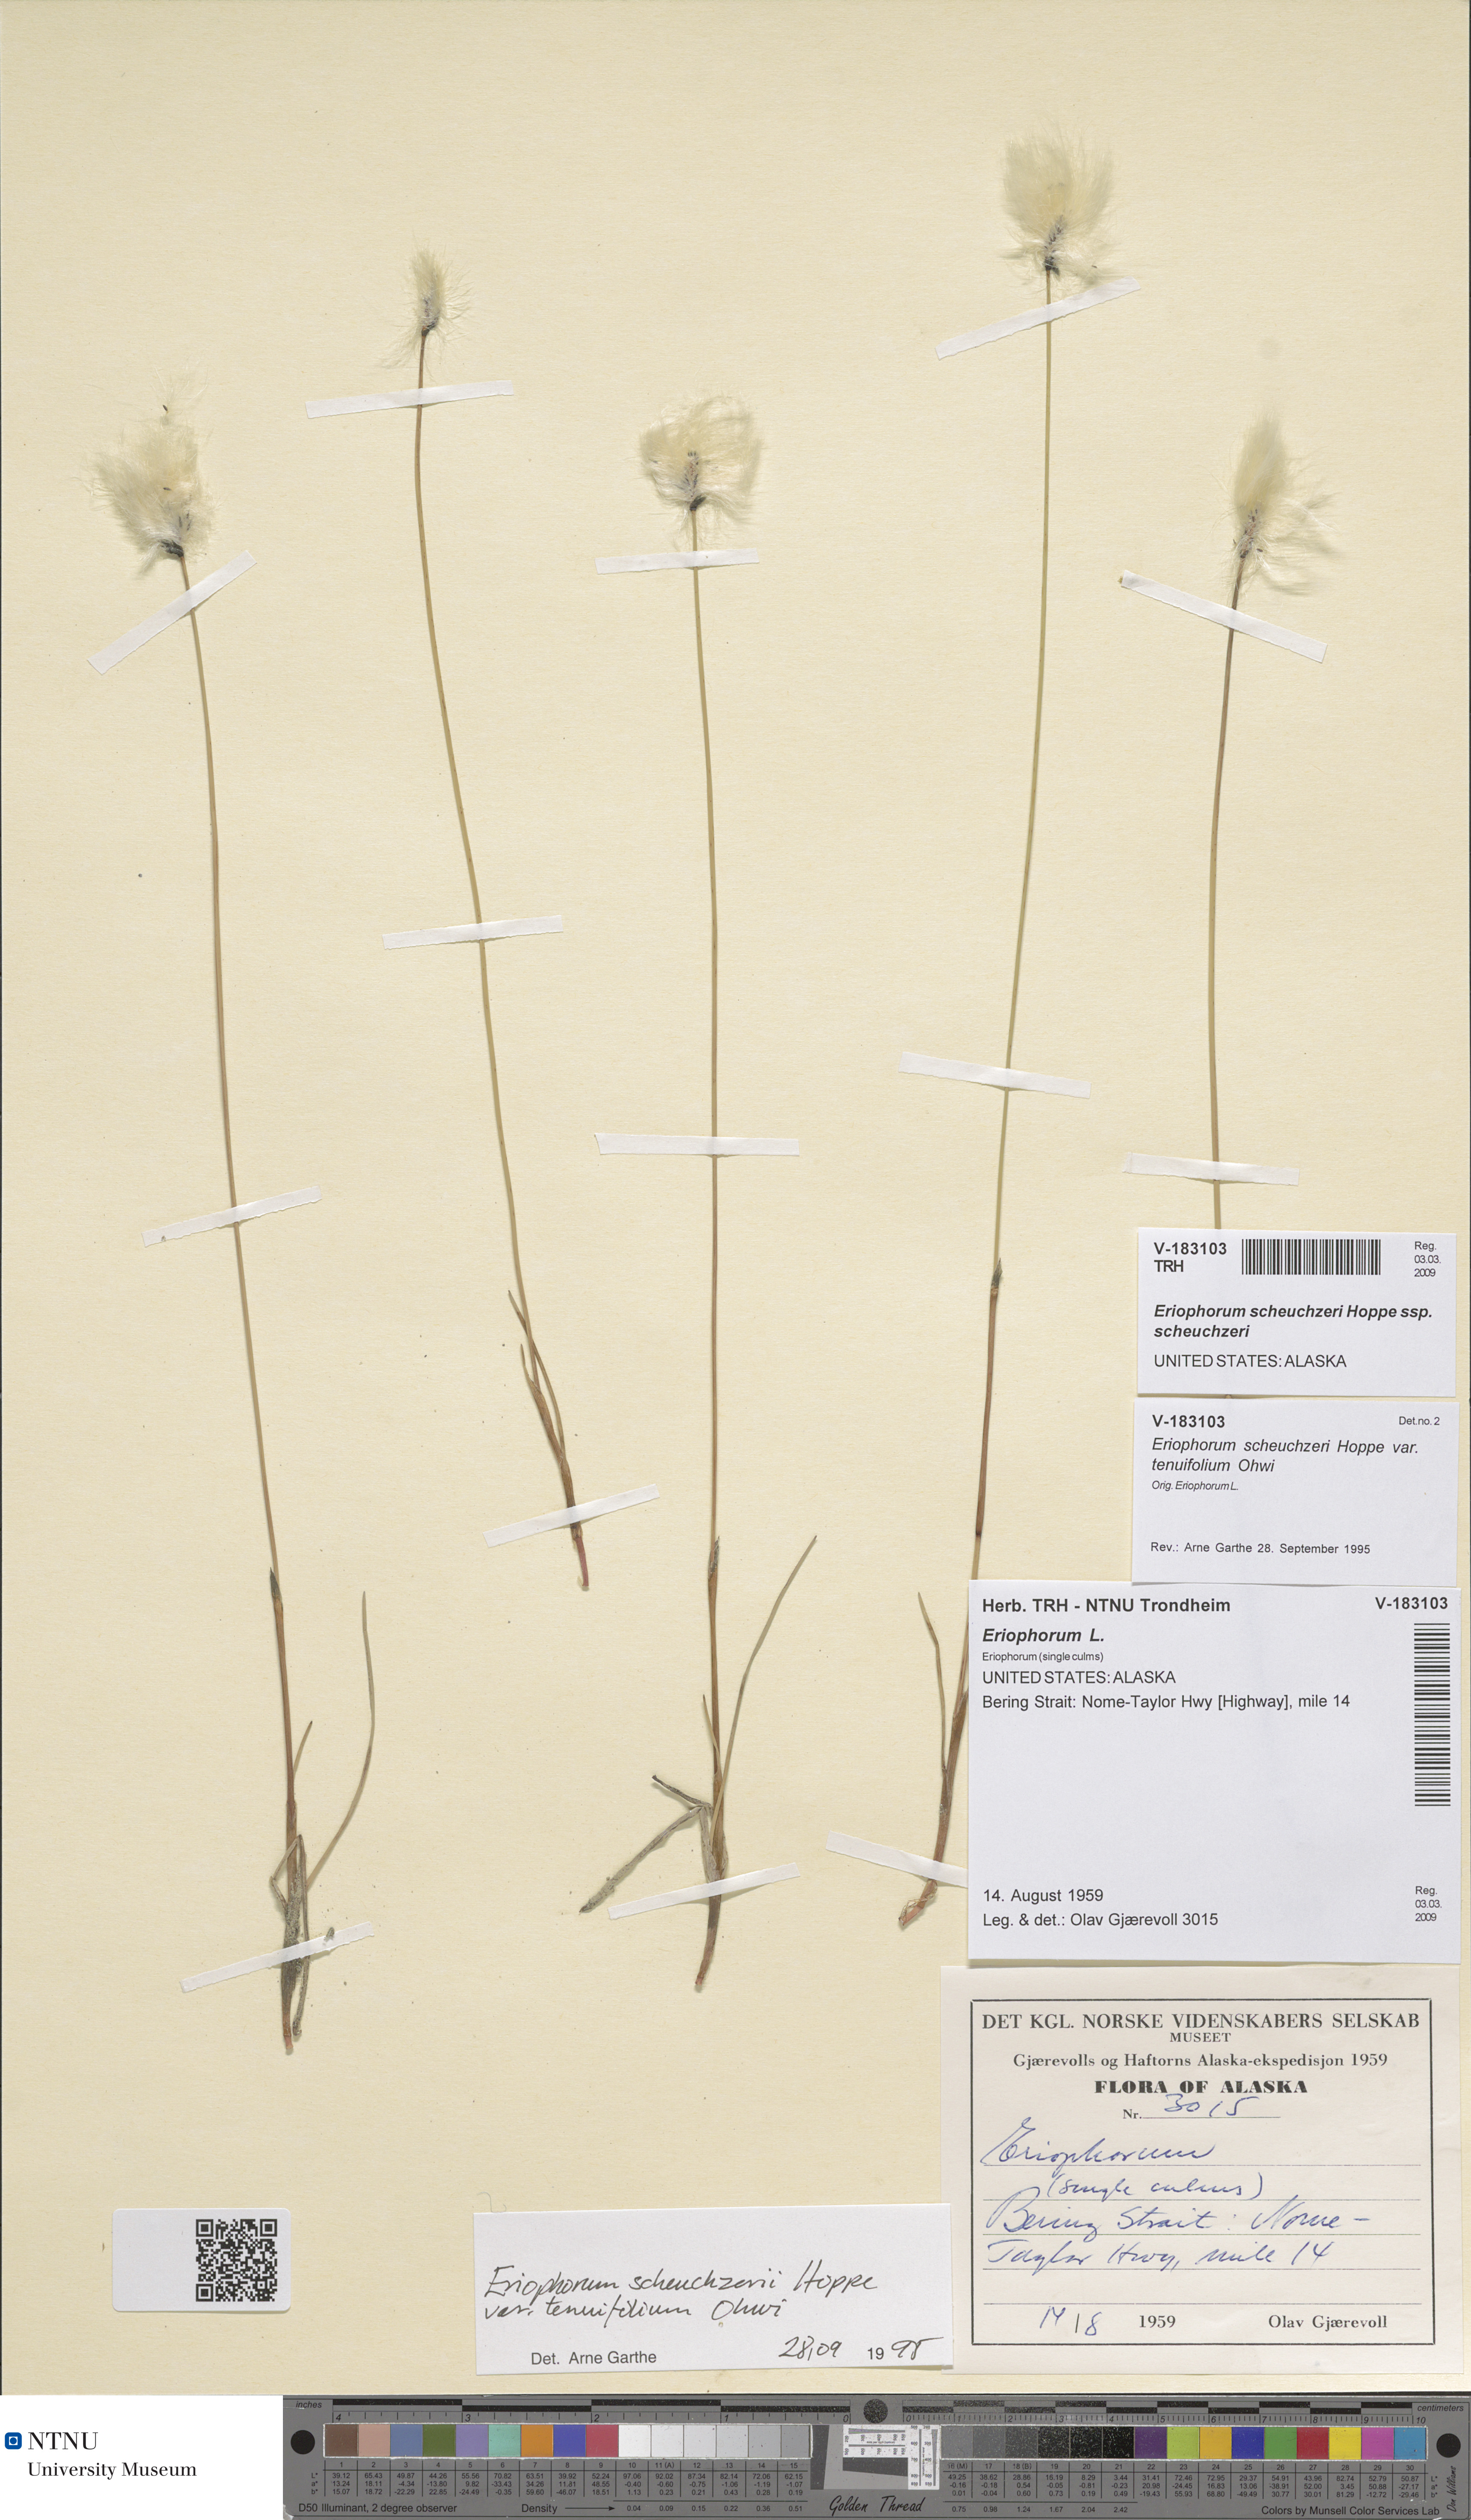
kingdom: Plantae
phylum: Tracheophyta
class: Liliopsida
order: Poales
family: Cyperaceae
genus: Eriophorum
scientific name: Eriophorum scheuchzeri
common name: Scheuchzer's cottongrass
